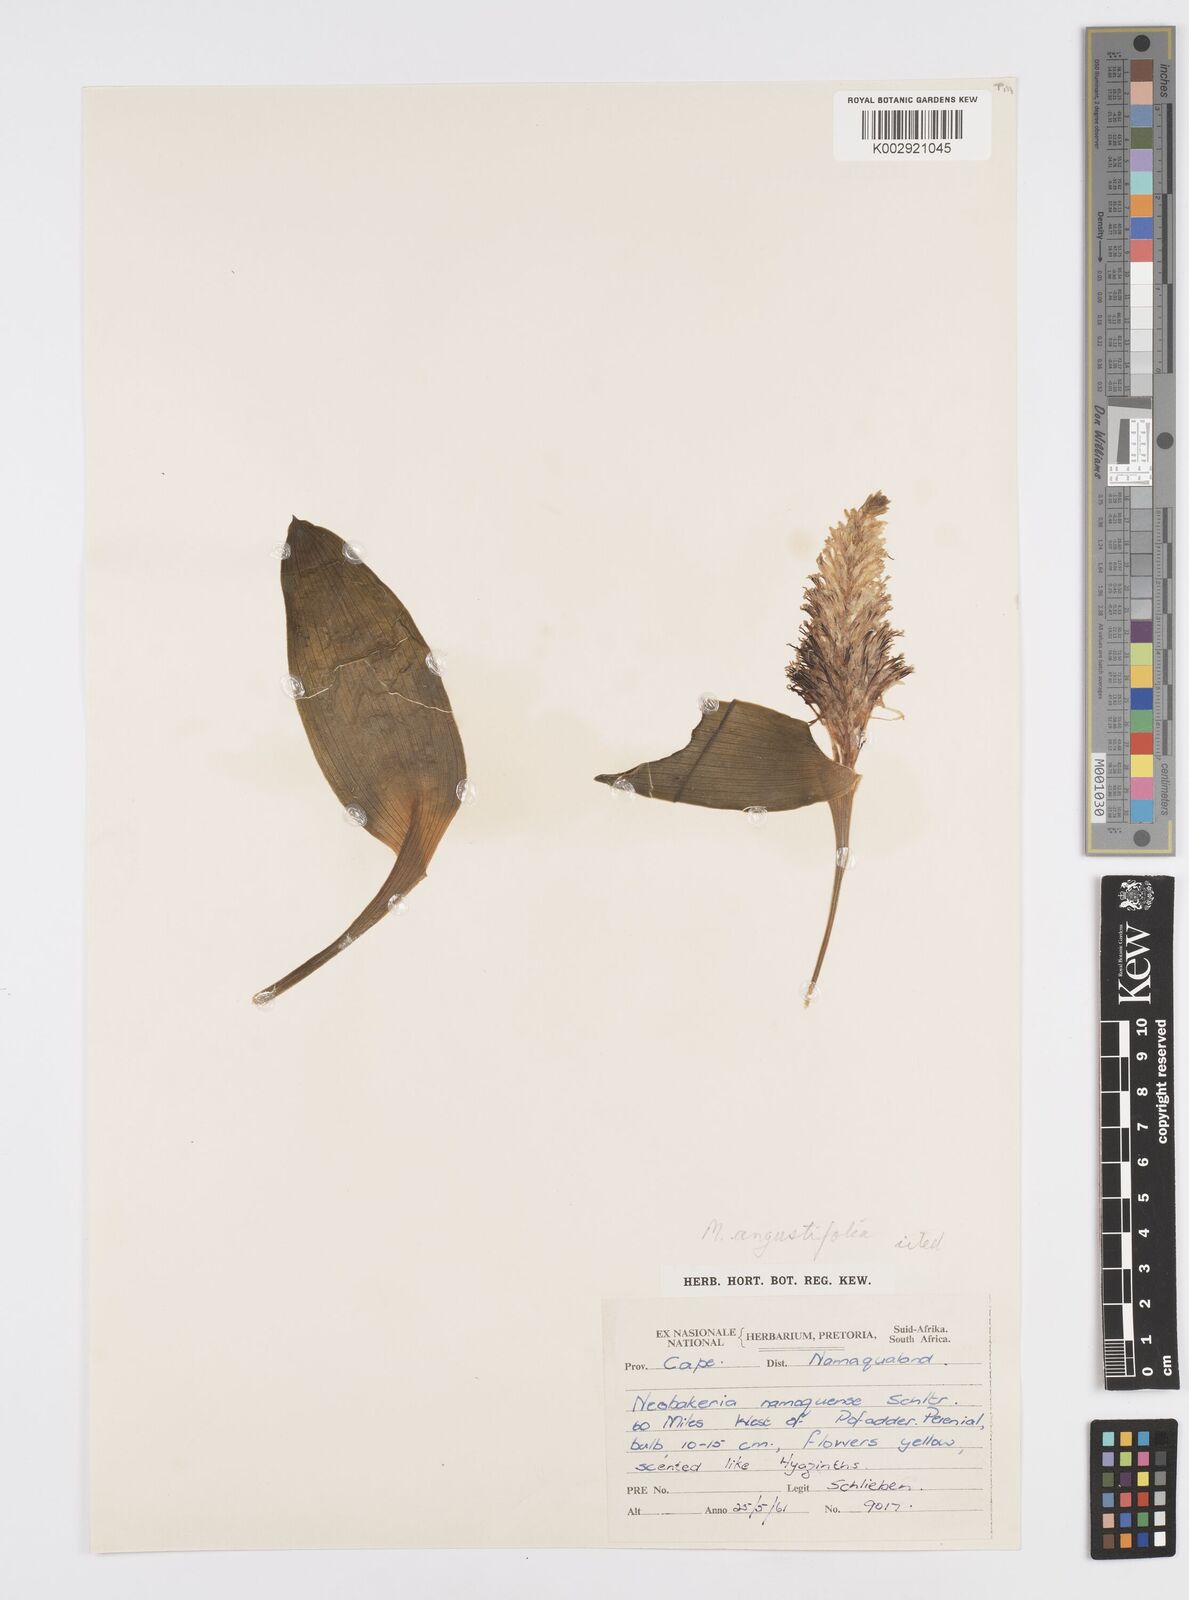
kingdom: Plantae
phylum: Tracheophyta
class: Liliopsida
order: Asparagales
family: Asparagaceae
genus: Massonia
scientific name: Massonia depressa
